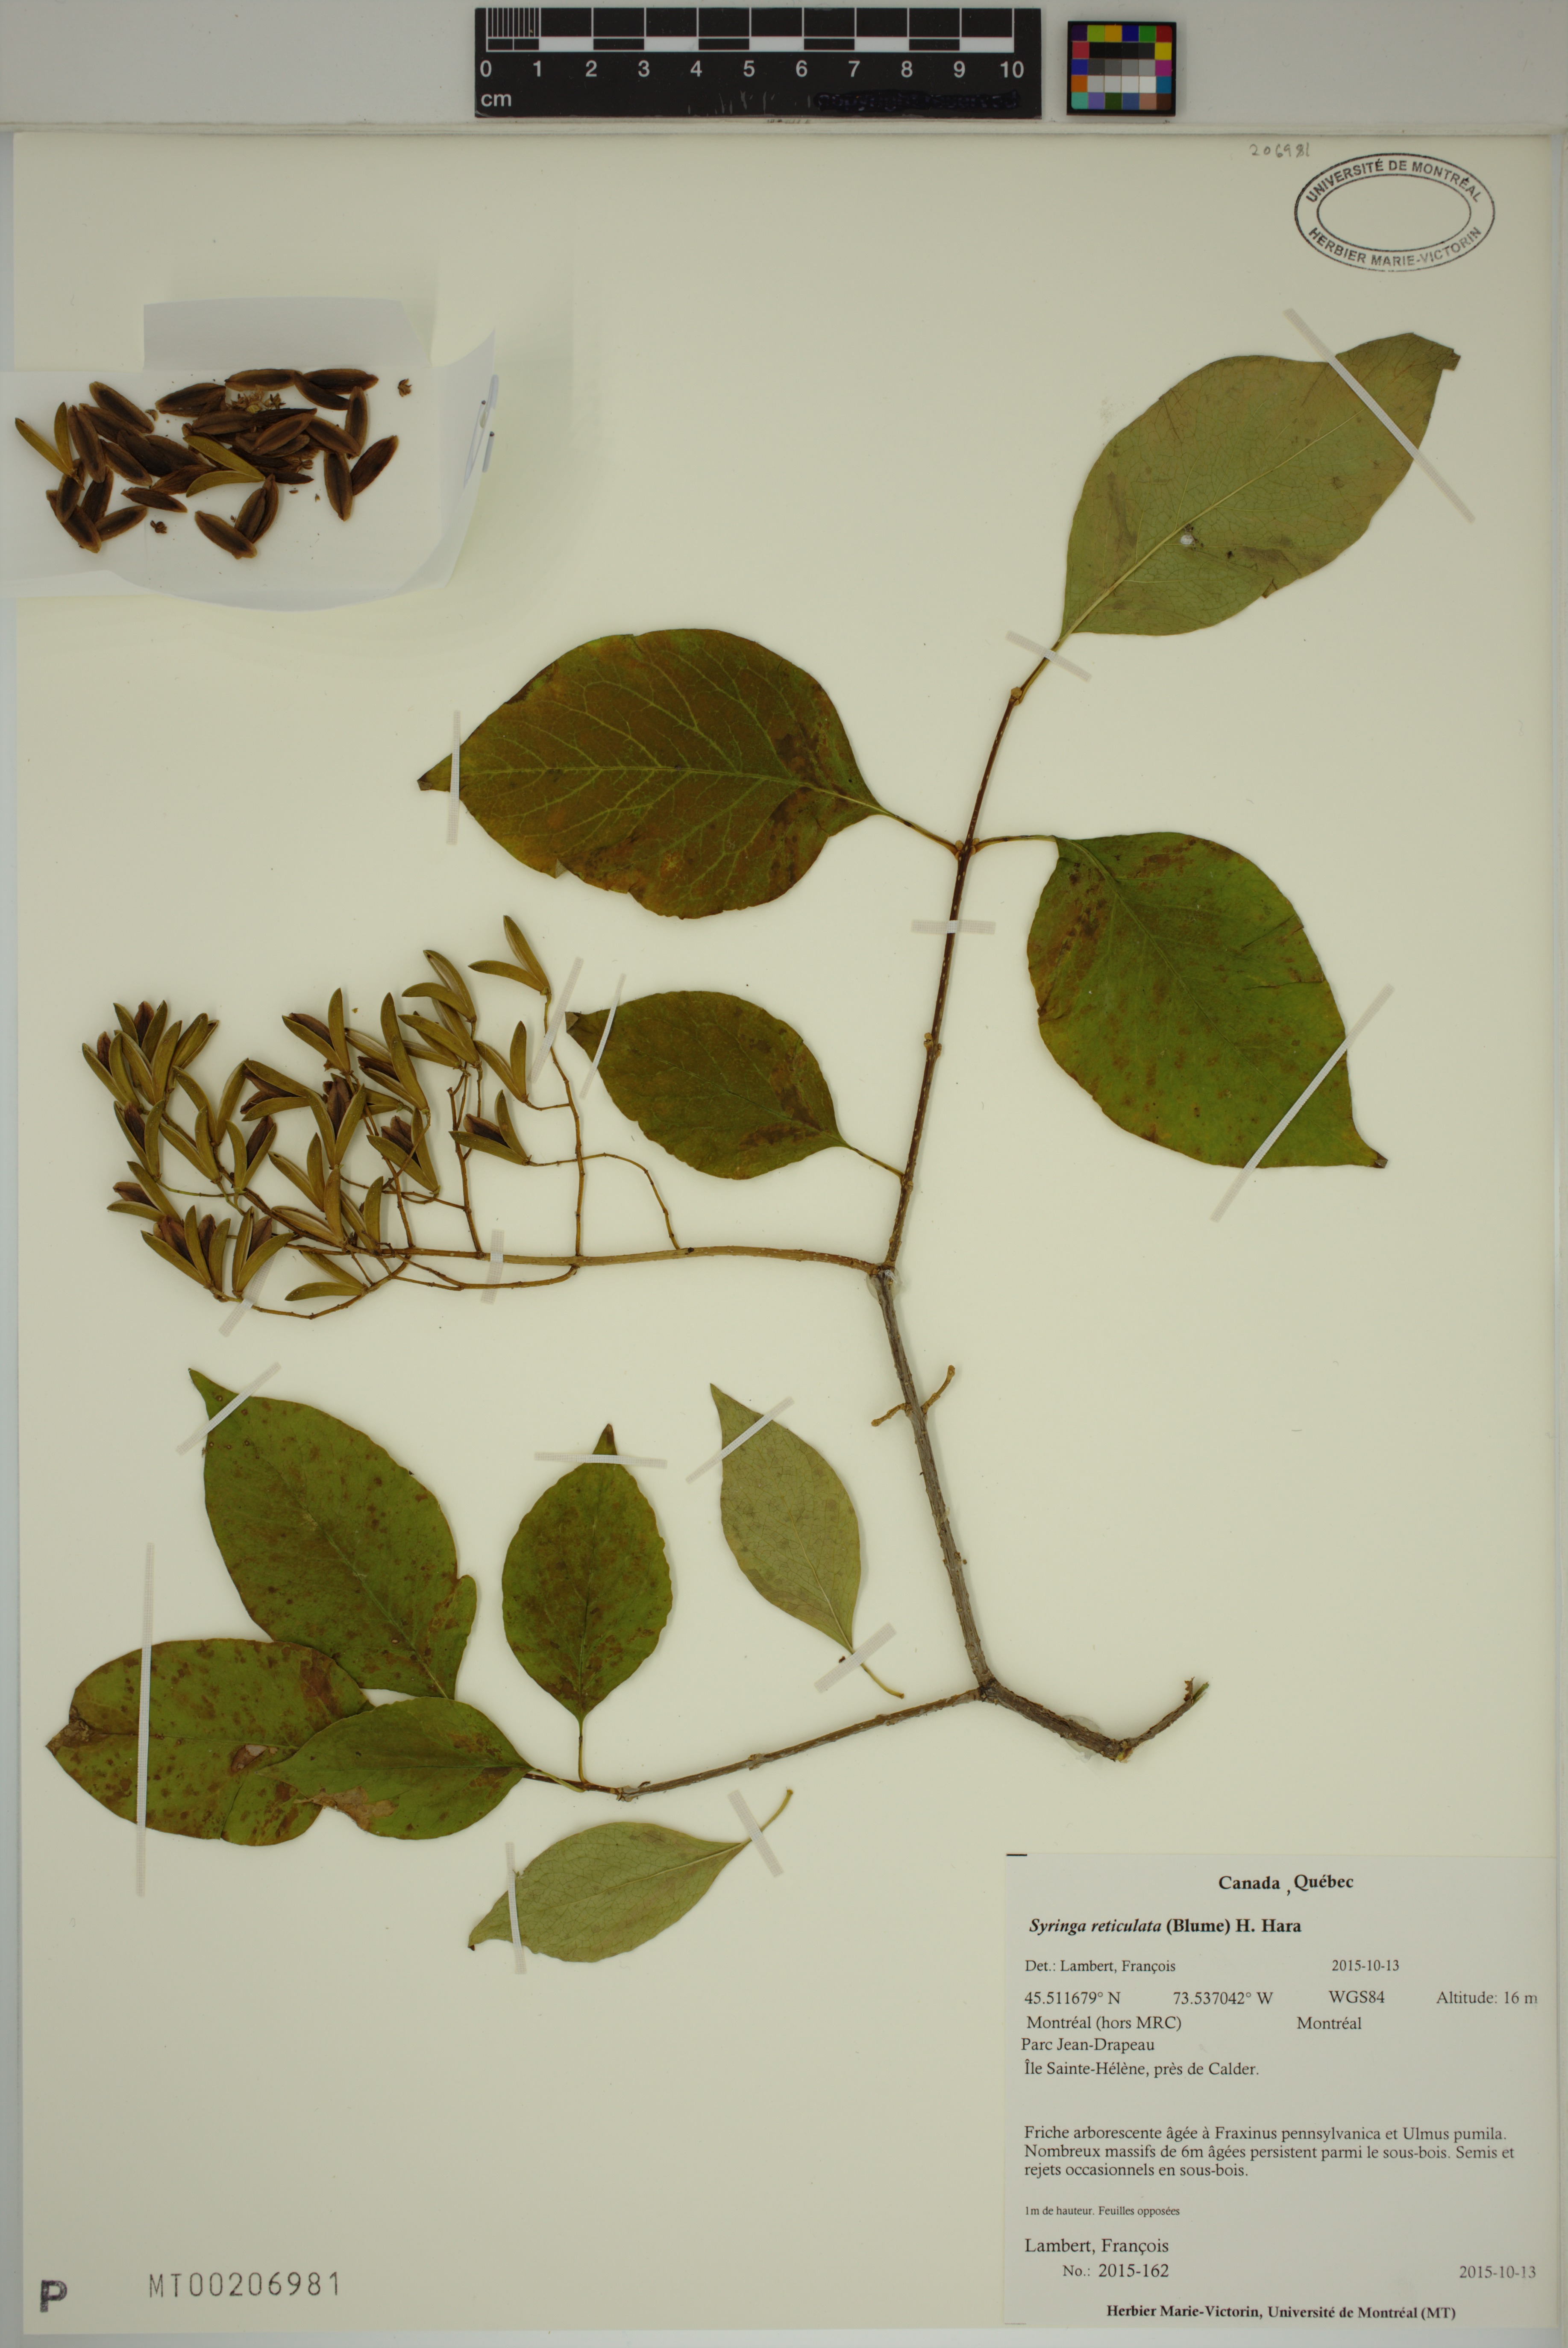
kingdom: Plantae
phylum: Tracheophyta
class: Magnoliopsida
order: Lamiales
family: Oleaceae
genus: Syringa
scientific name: Syringa reticulata
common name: Japanese tree lilac
